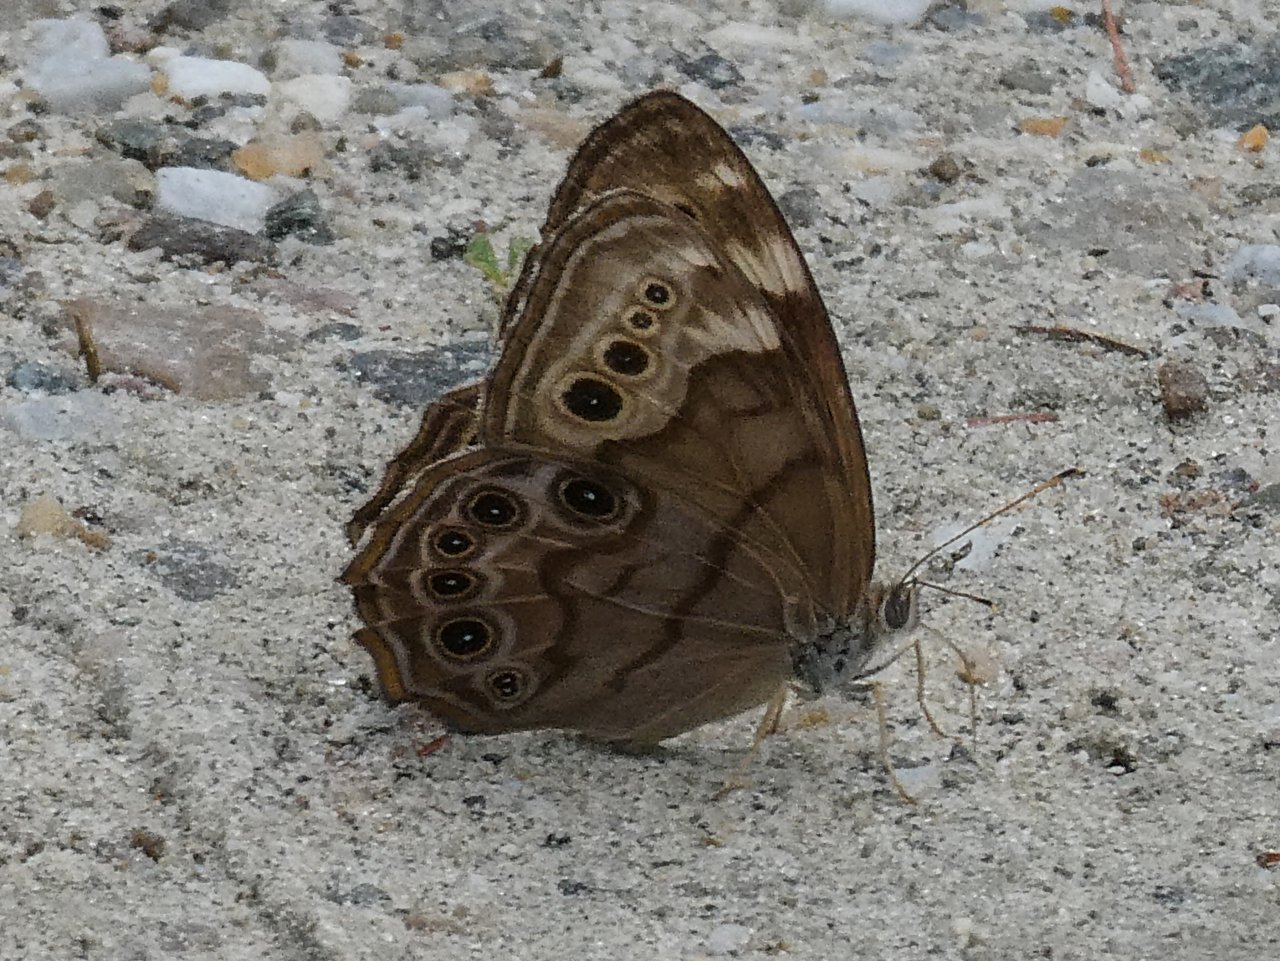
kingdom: Animalia
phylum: Arthropoda
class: Insecta
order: Lepidoptera
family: Nymphalidae
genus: Lethe
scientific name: Lethe anthedon
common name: Northern Pearly-Eye
